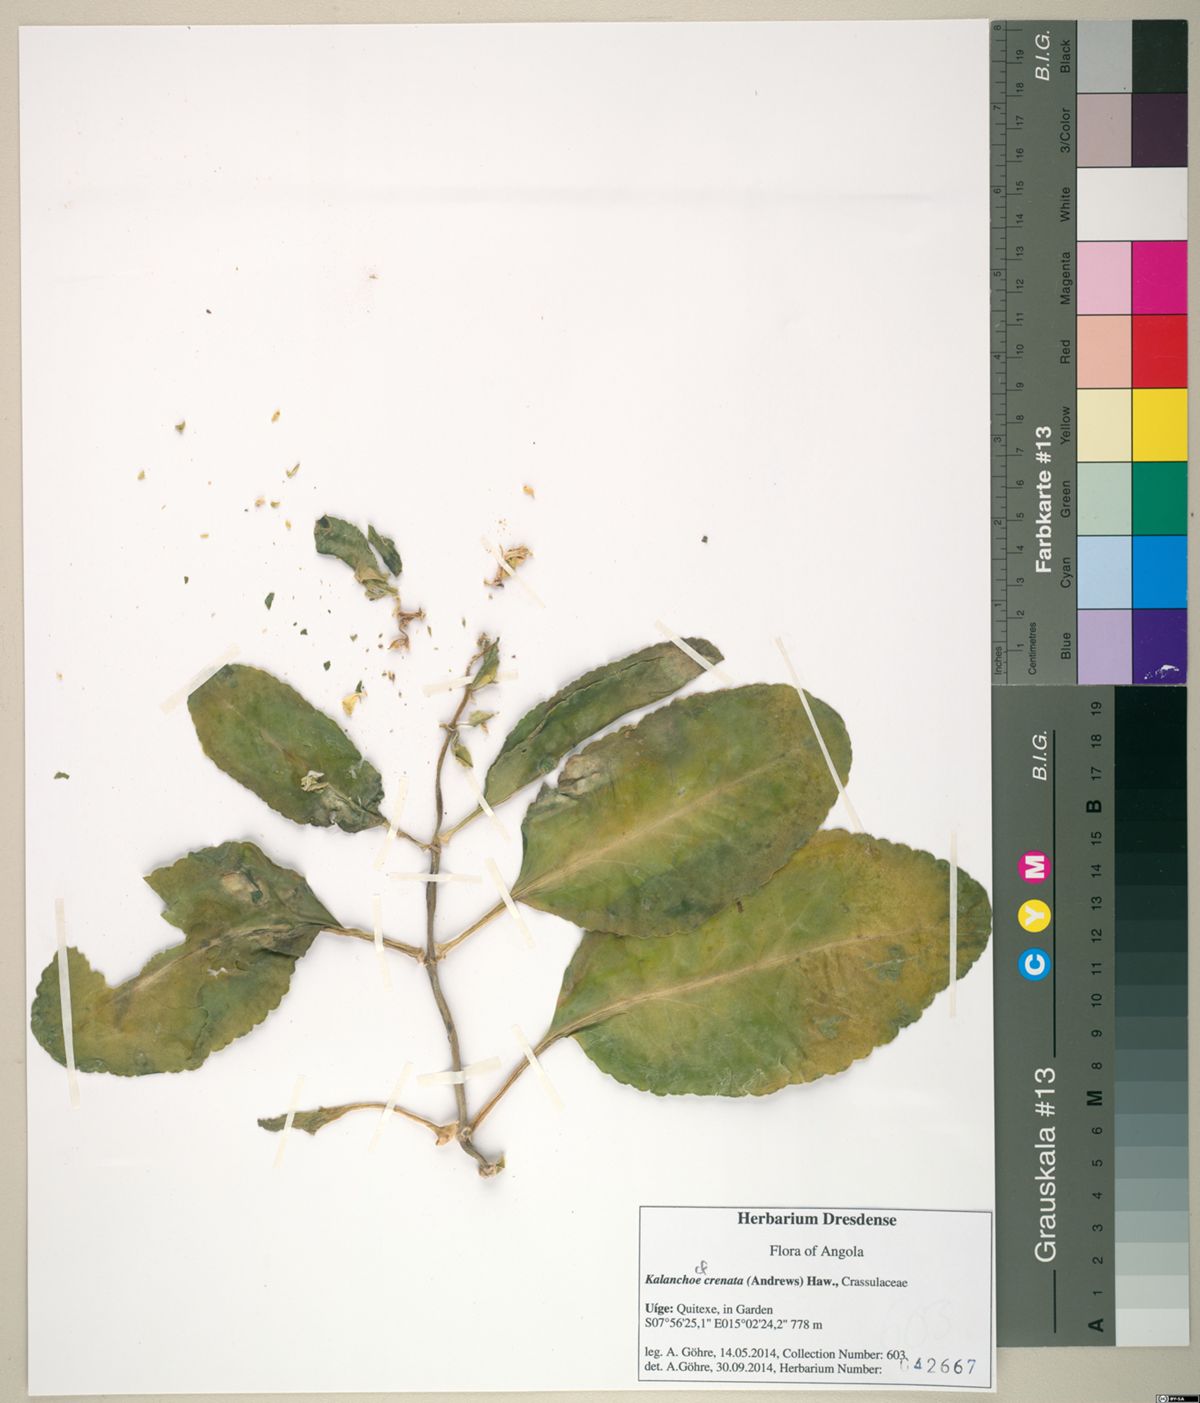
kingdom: Plantae
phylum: Tracheophyta
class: Magnoliopsida
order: Saxifragales
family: Crassulaceae
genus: Kalanchoe
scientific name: Kalanchoe crenata
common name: Neverdie
